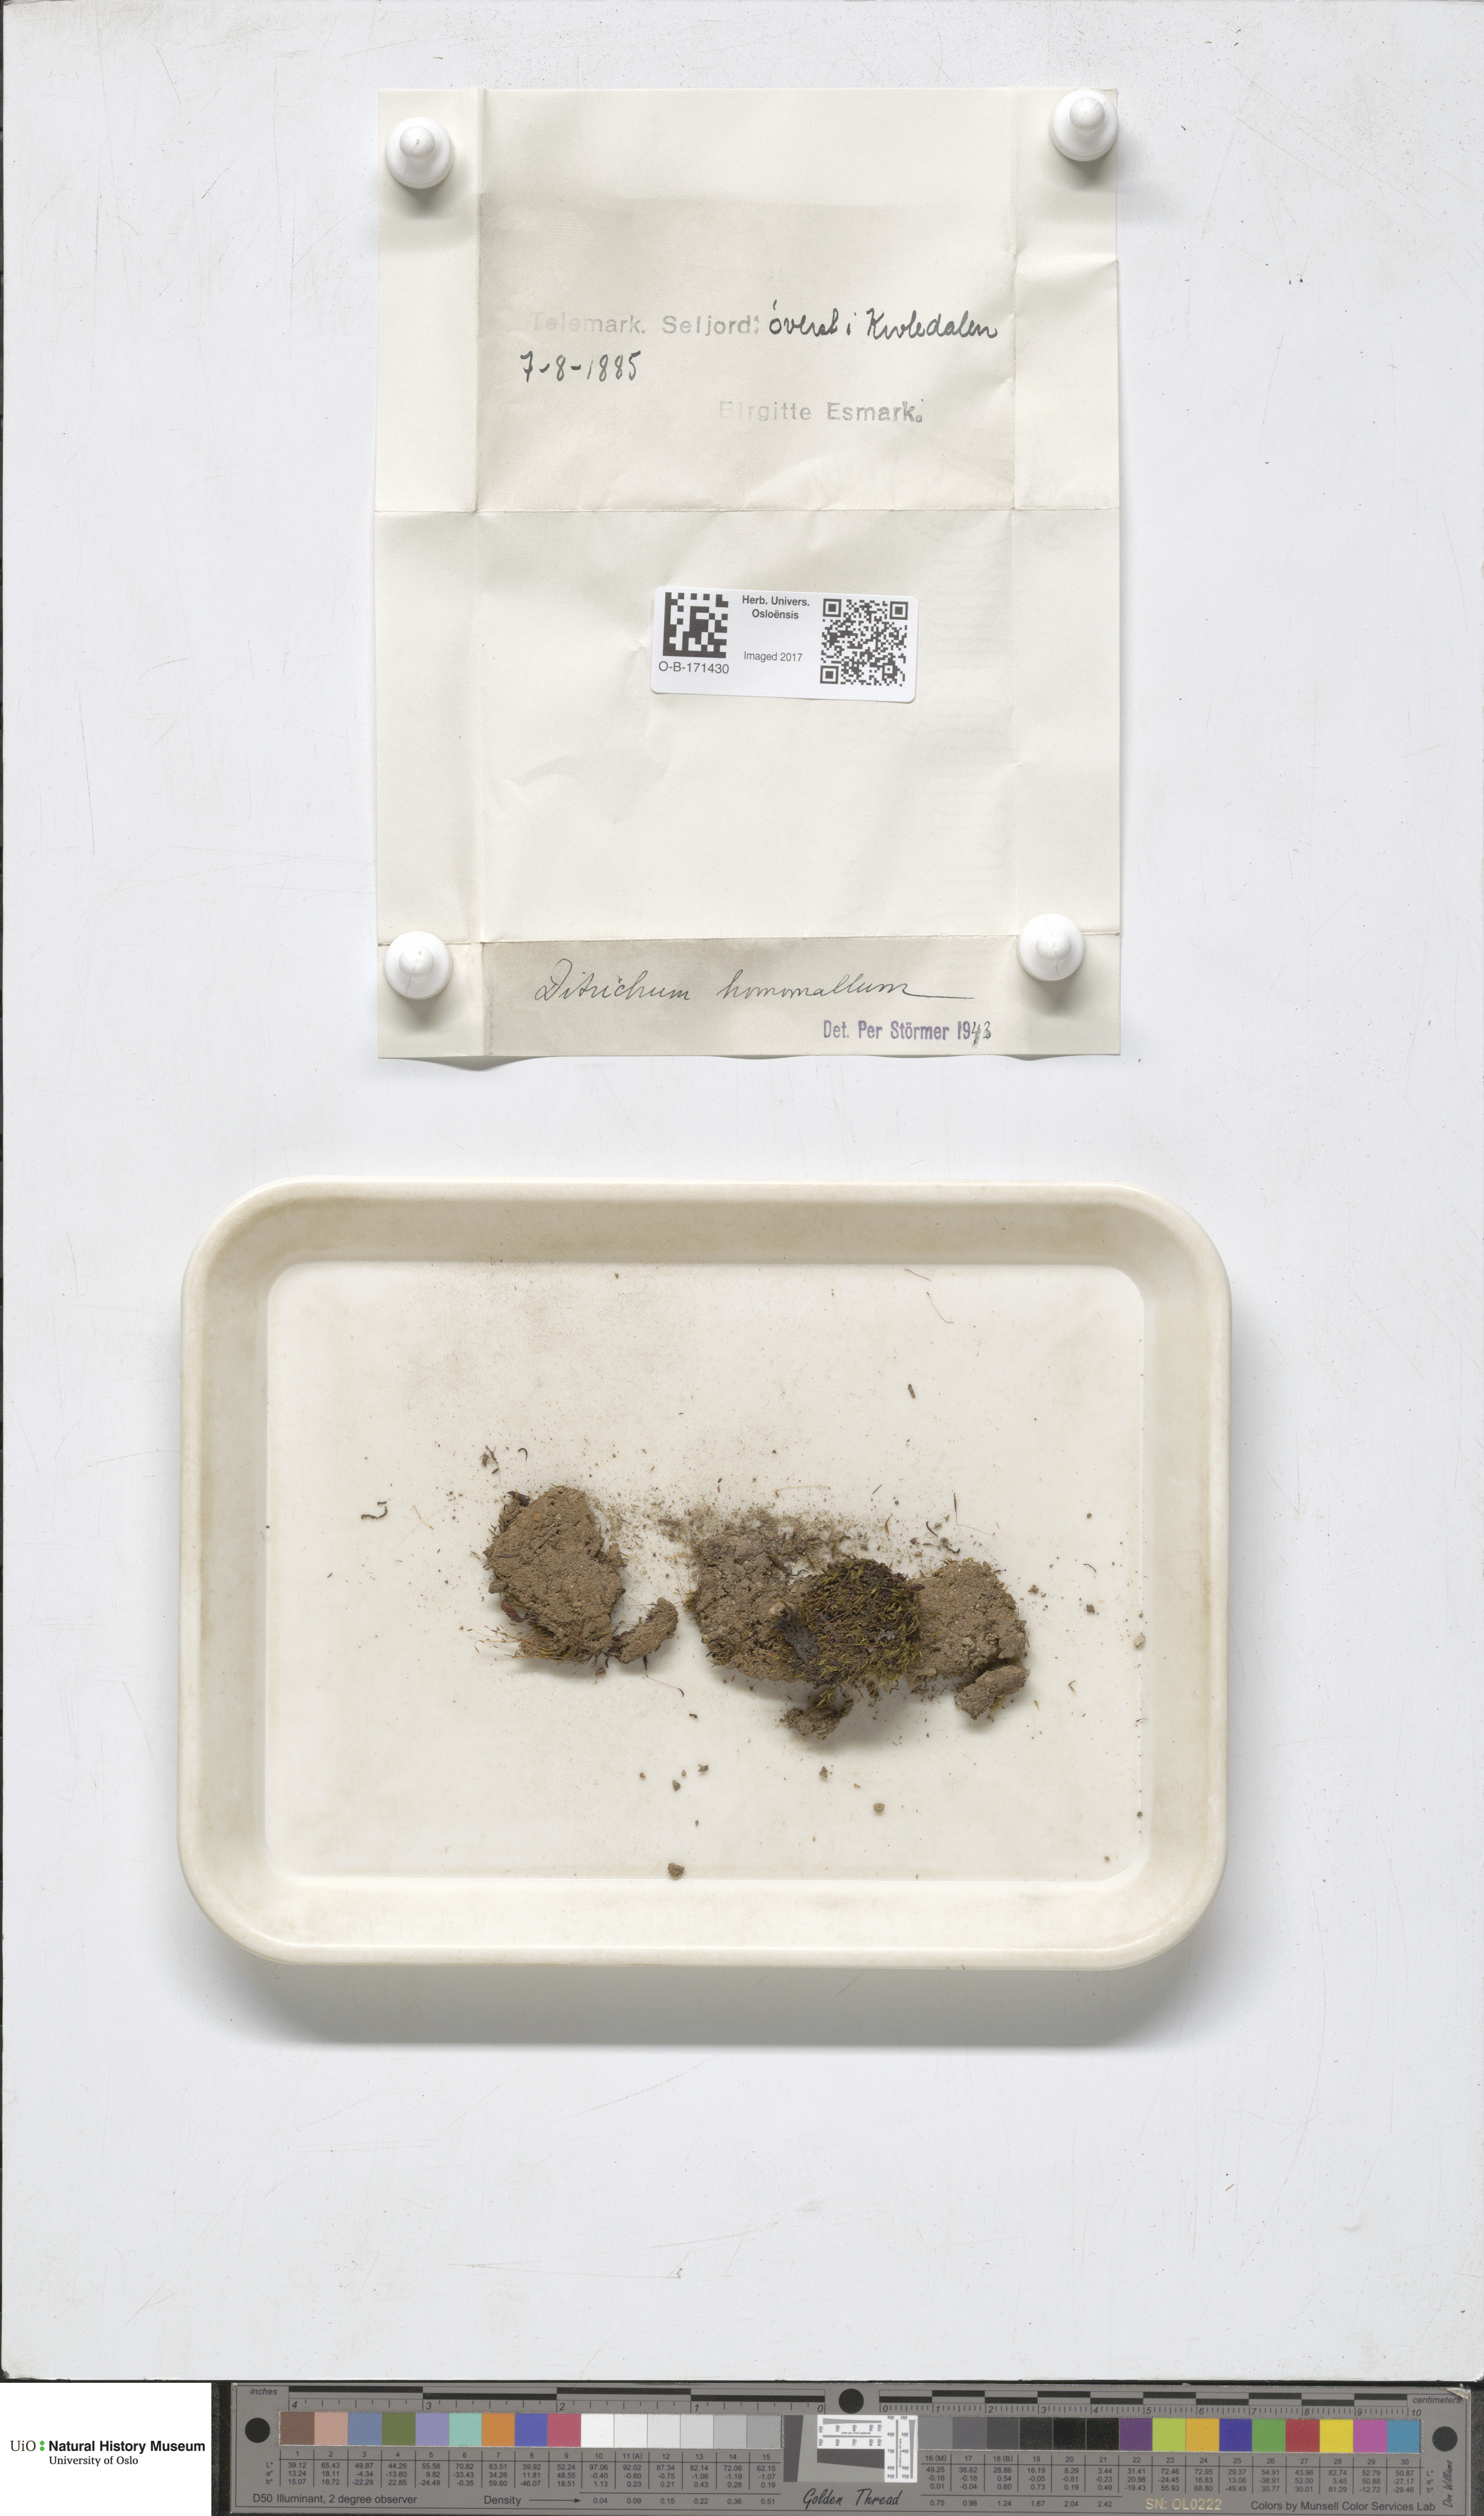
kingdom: Plantae
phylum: Bryophyta
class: Bryopsida
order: Dicranales
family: Ditrichaceae
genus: Ditrichum
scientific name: Ditrichum heteromallum
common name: Curve-leaved ditrichum
